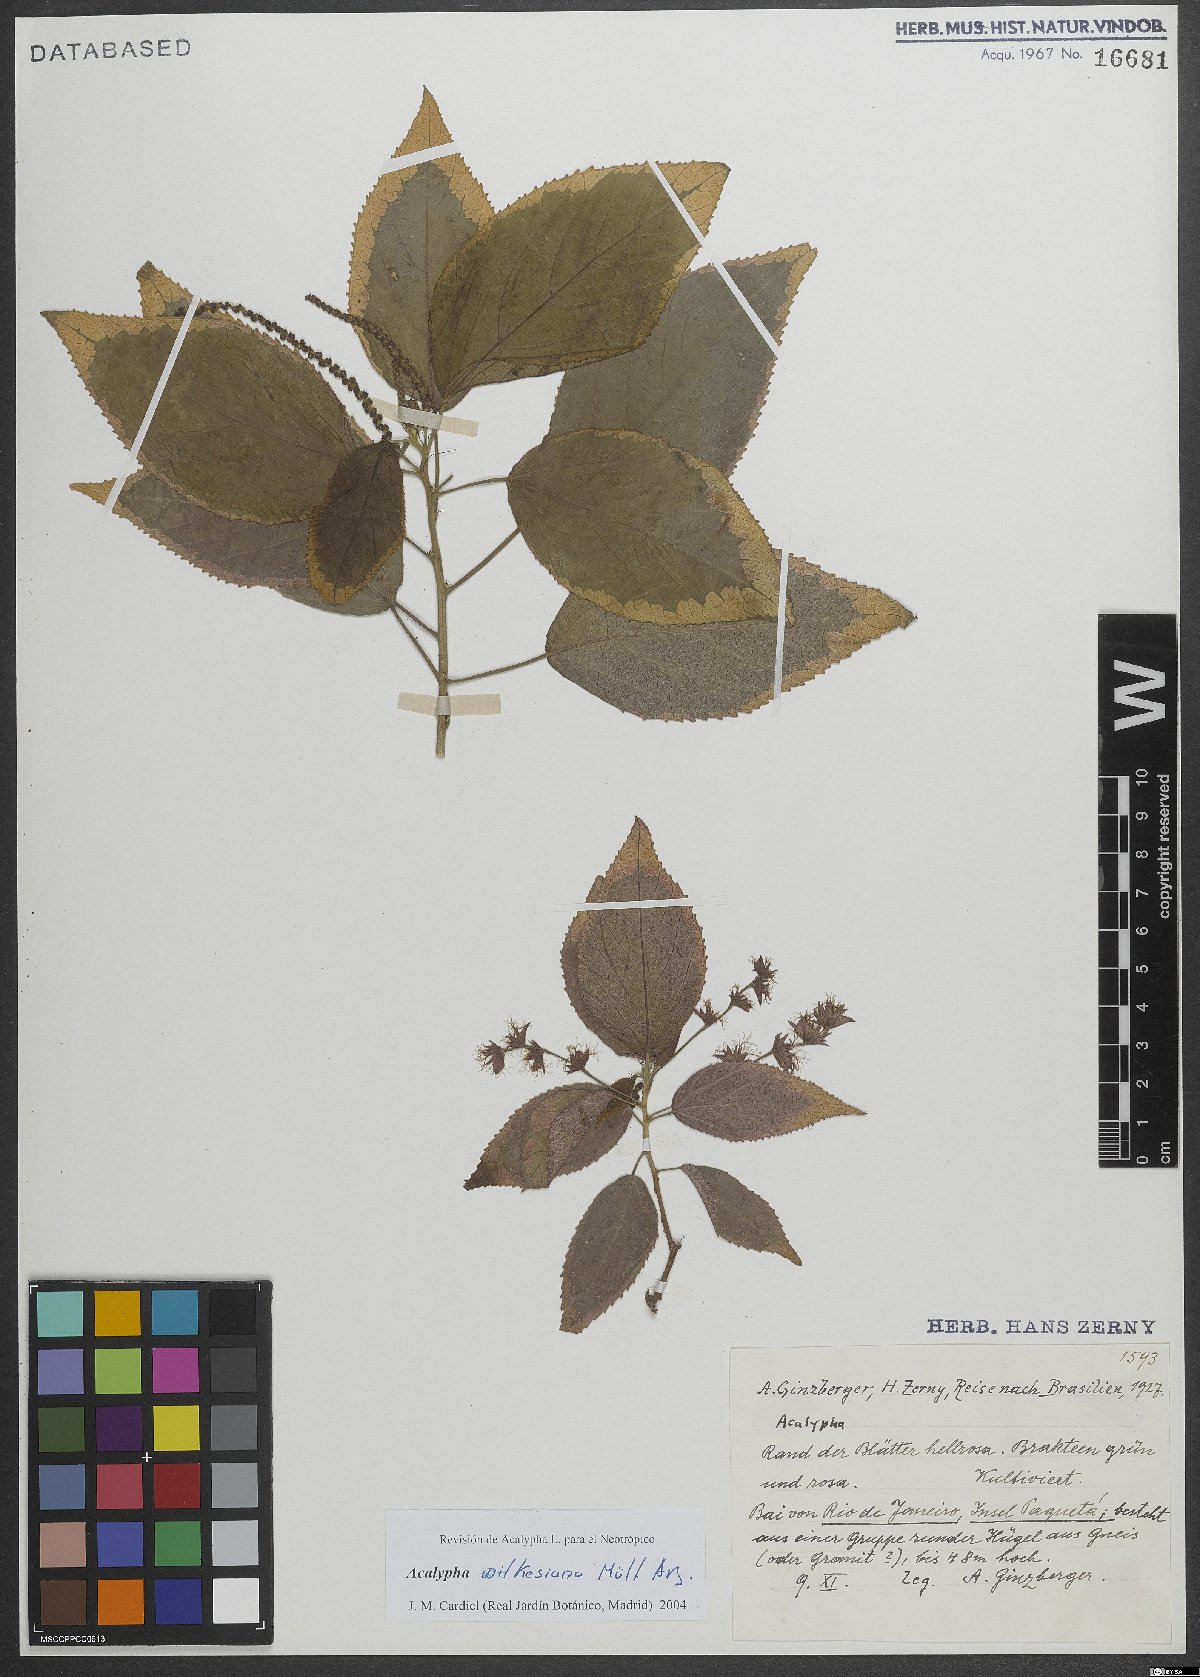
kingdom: Plantae
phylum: Tracheophyta
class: Magnoliopsida
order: Malpighiales
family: Euphorbiaceae
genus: Acalypha
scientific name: Acalypha wilkesiana
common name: Jacob's coat
